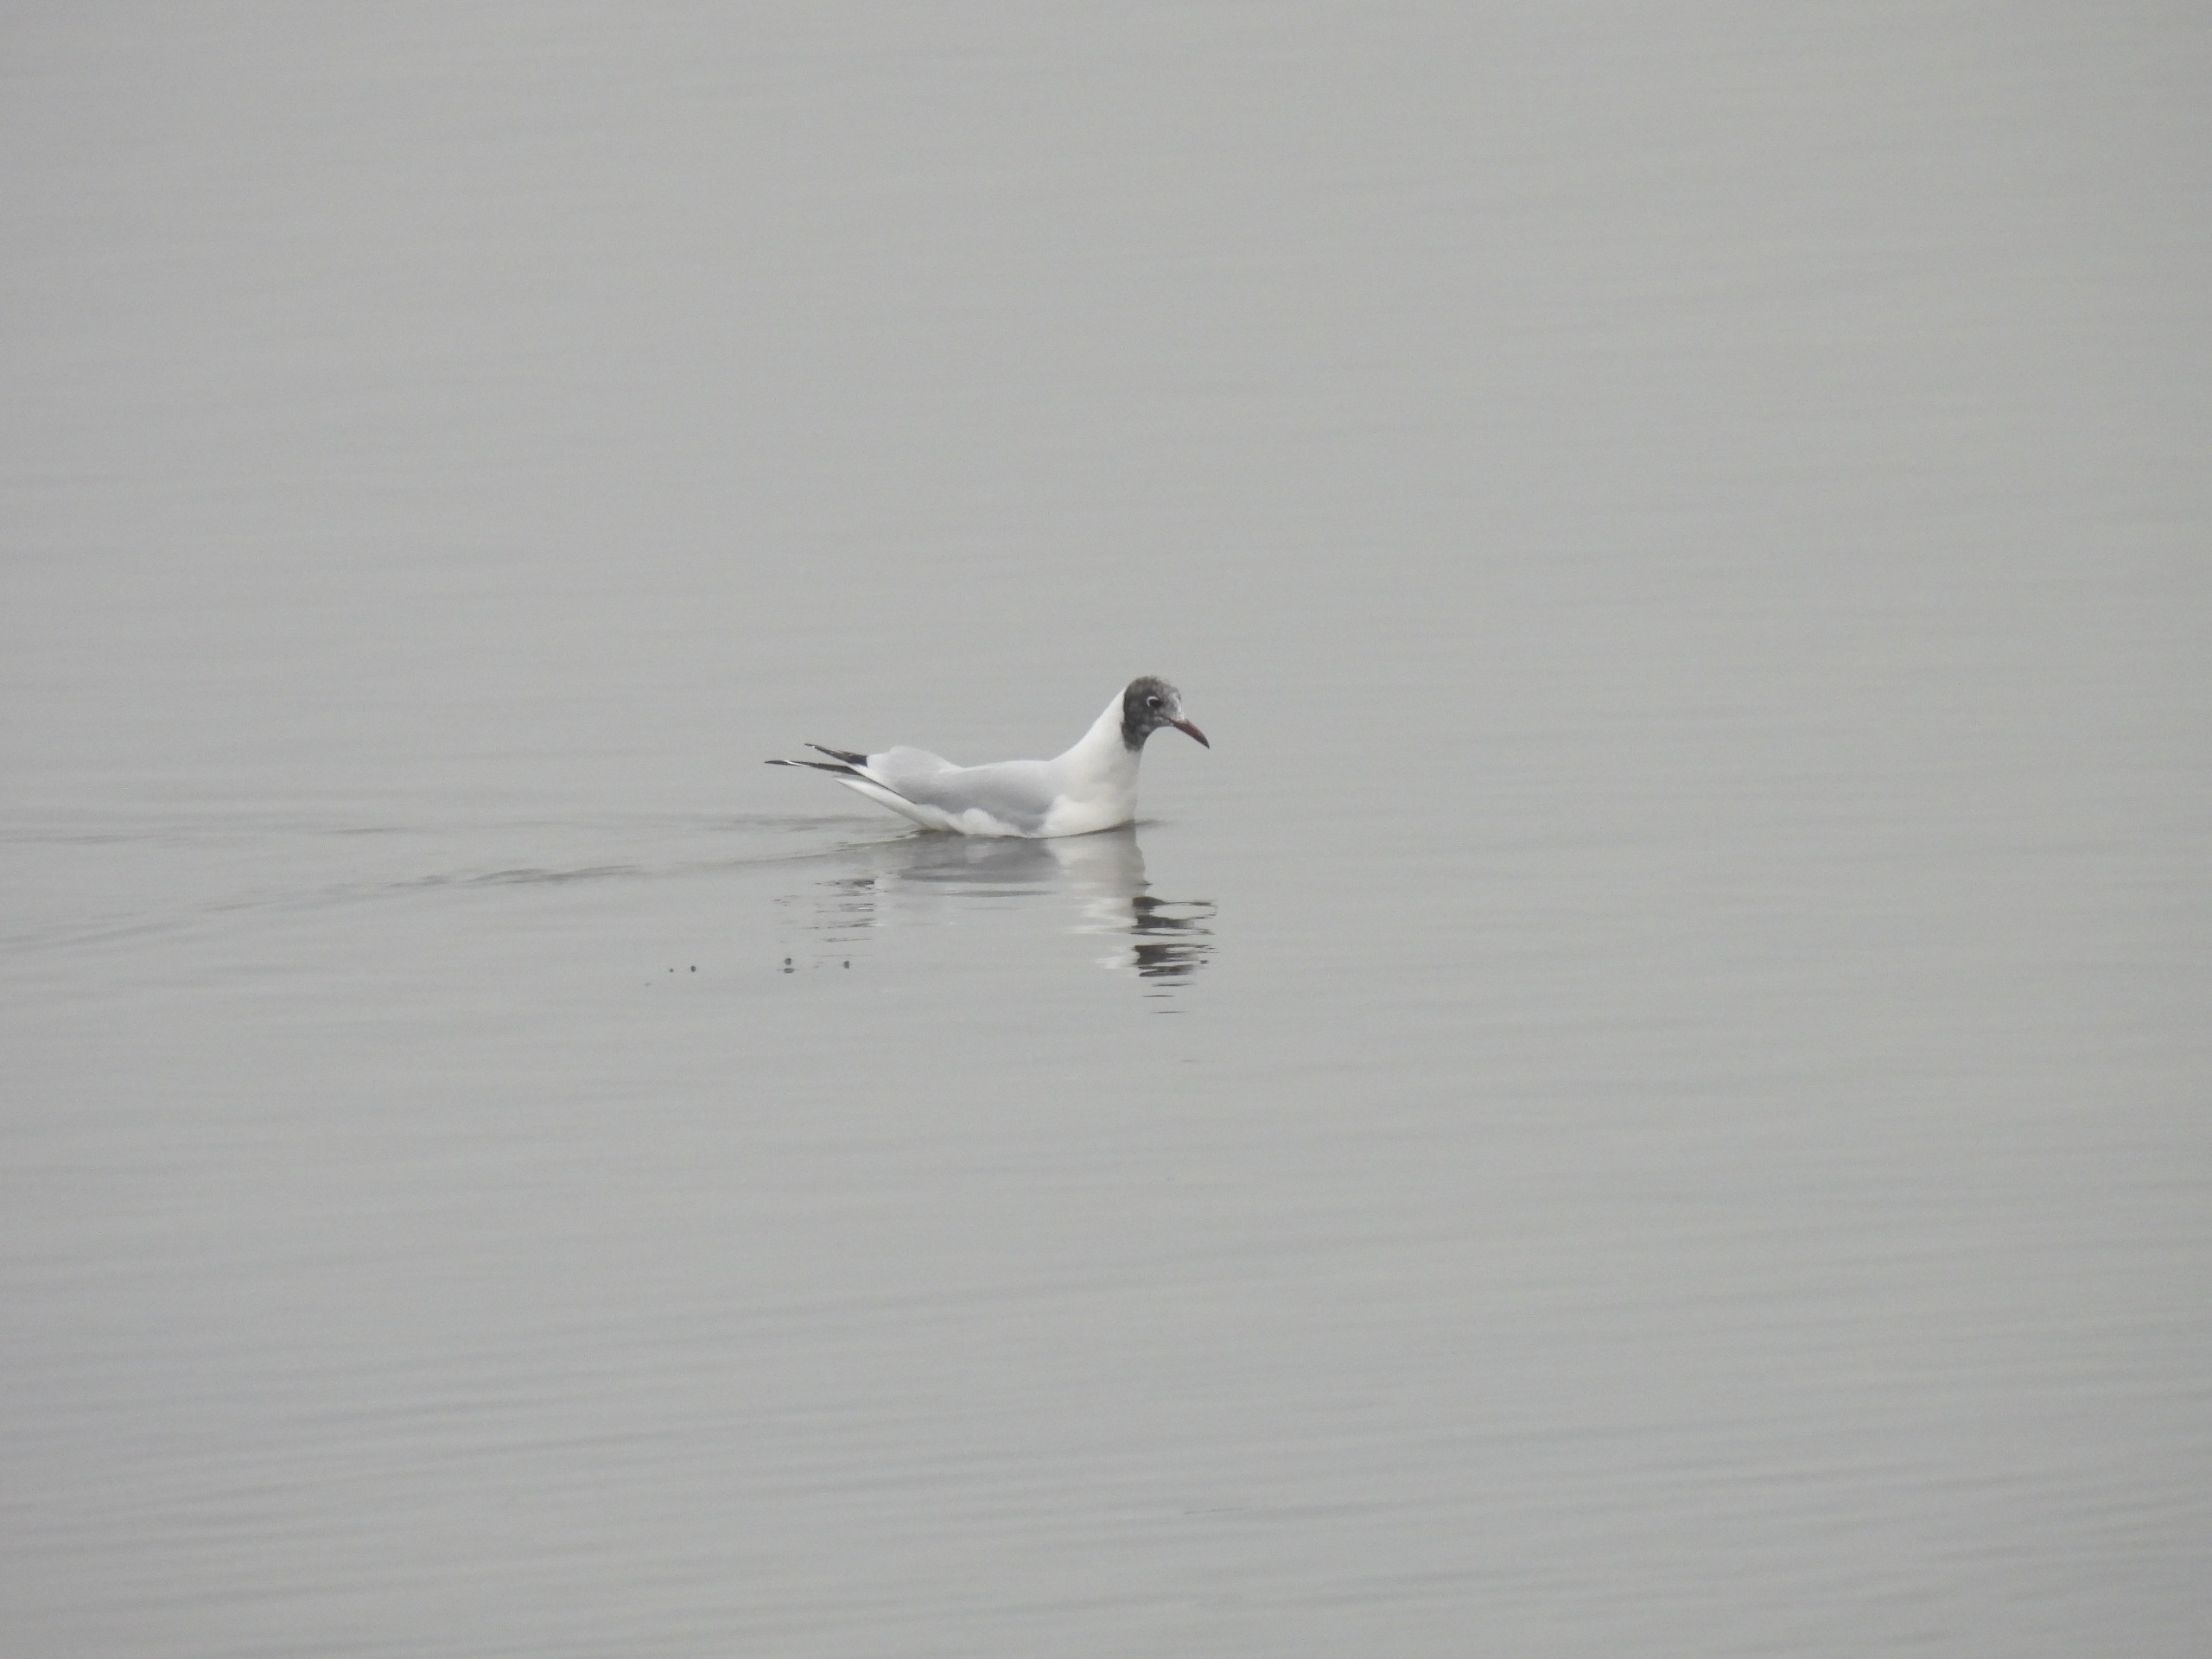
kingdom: Animalia
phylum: Chordata
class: Aves
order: Charadriiformes
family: Laridae
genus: Chroicocephalus
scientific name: Chroicocephalus ridibundus
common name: Hættemåge
